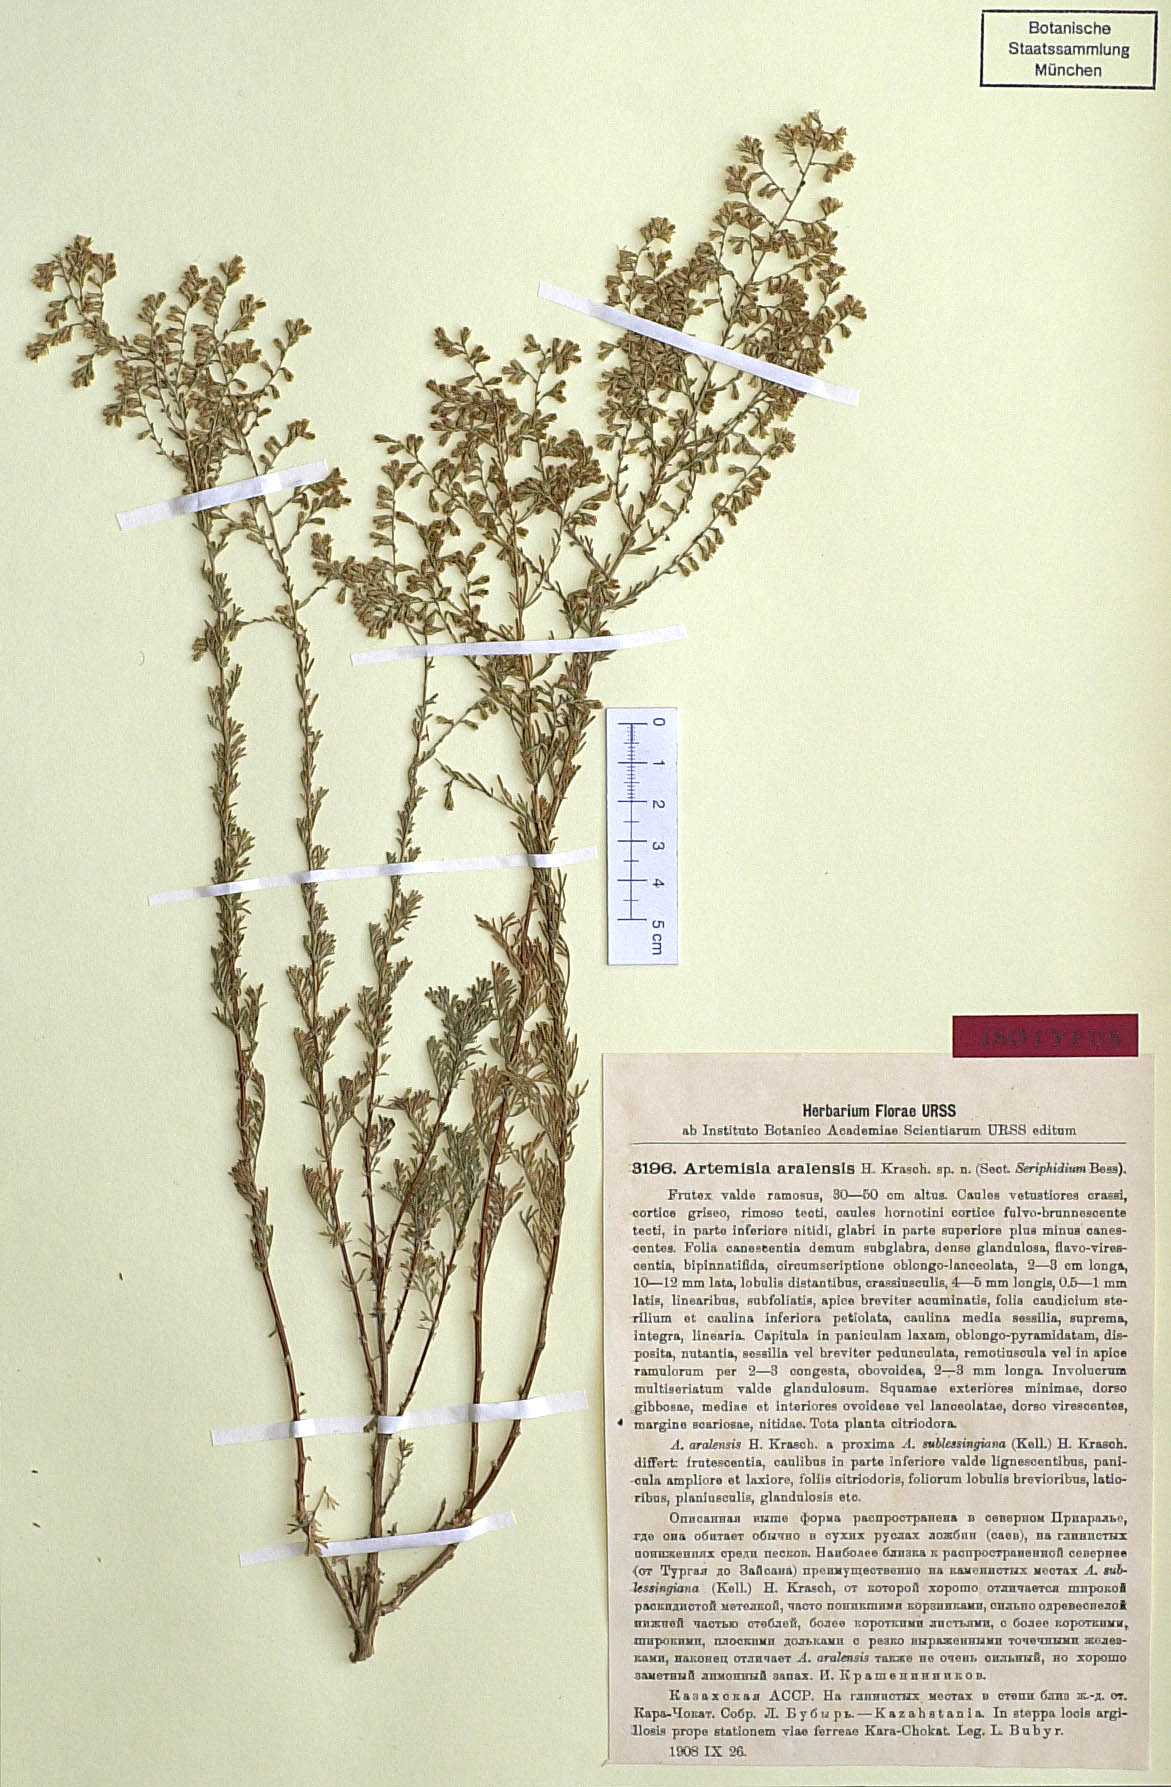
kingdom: Plantae
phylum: Tracheophyta
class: Magnoliopsida
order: Asterales
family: Asteraceae
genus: Artemisia
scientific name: Artemisia aralensis
